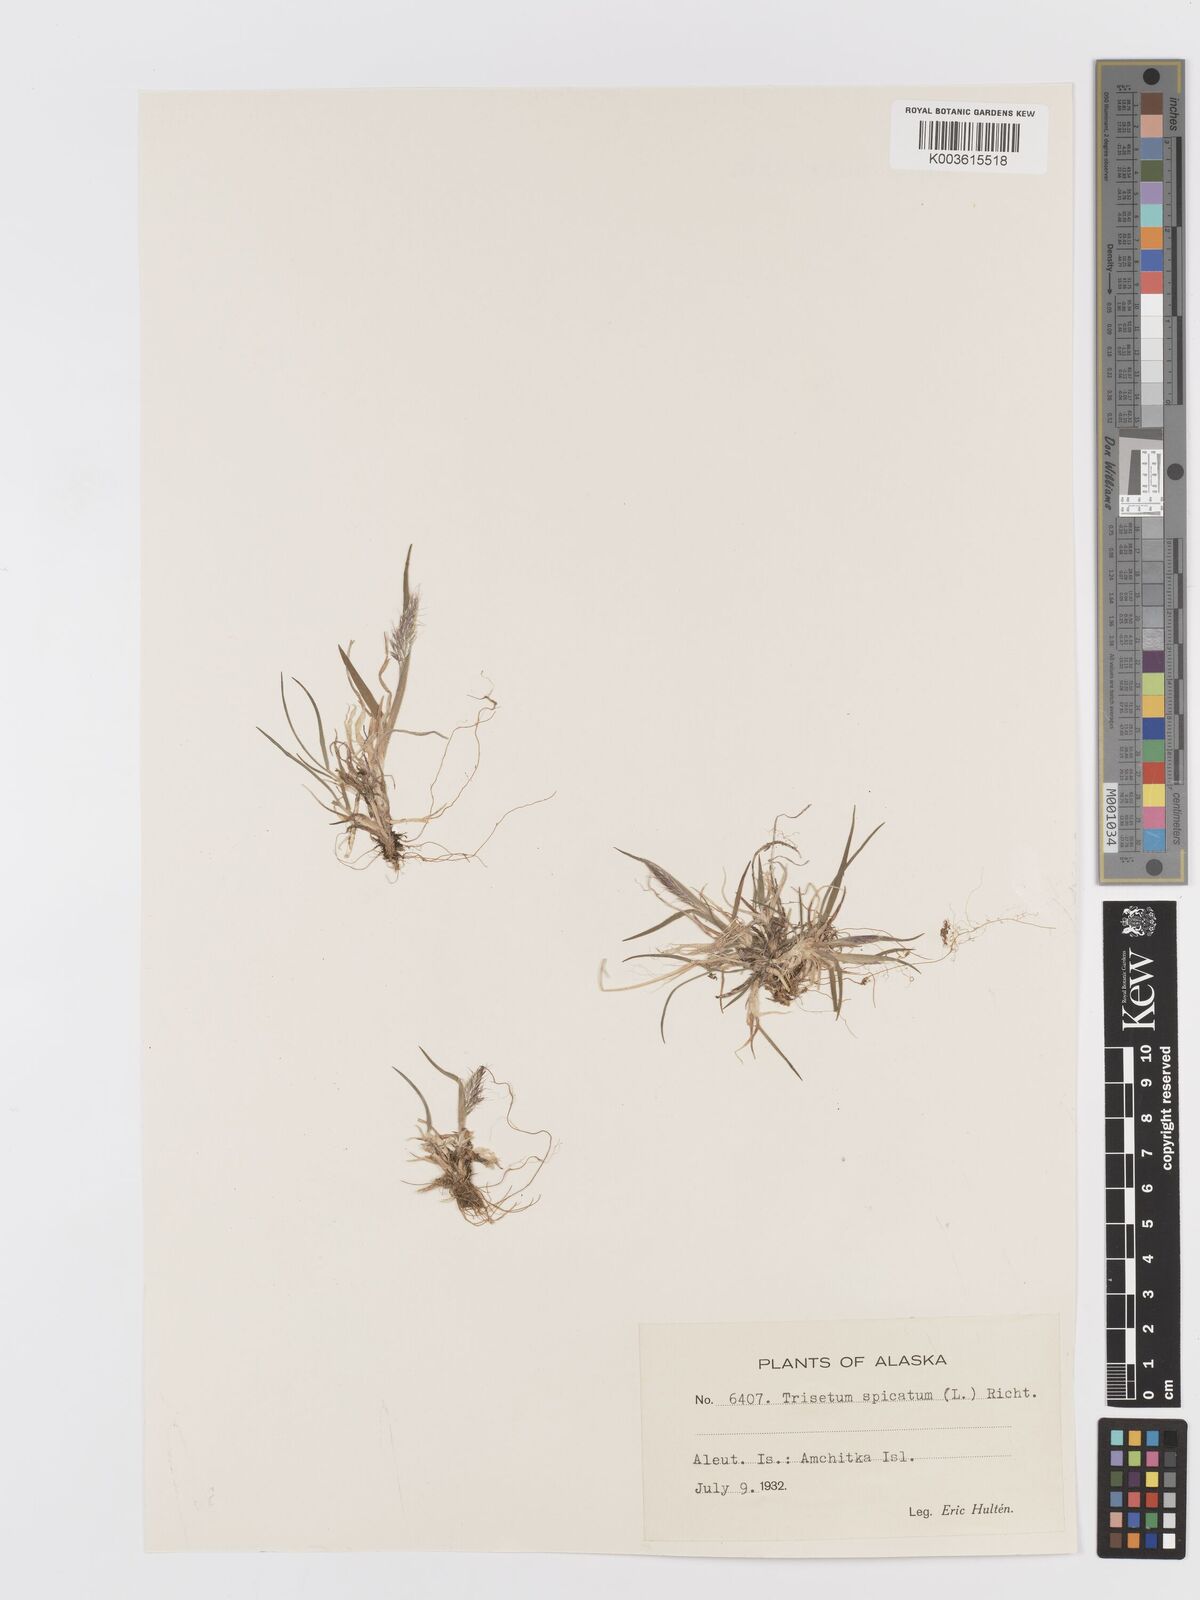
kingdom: Plantae
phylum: Tracheophyta
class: Liliopsida
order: Poales
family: Poaceae
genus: Koeleria
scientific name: Koeleria spicata
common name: Mountain trisetum
